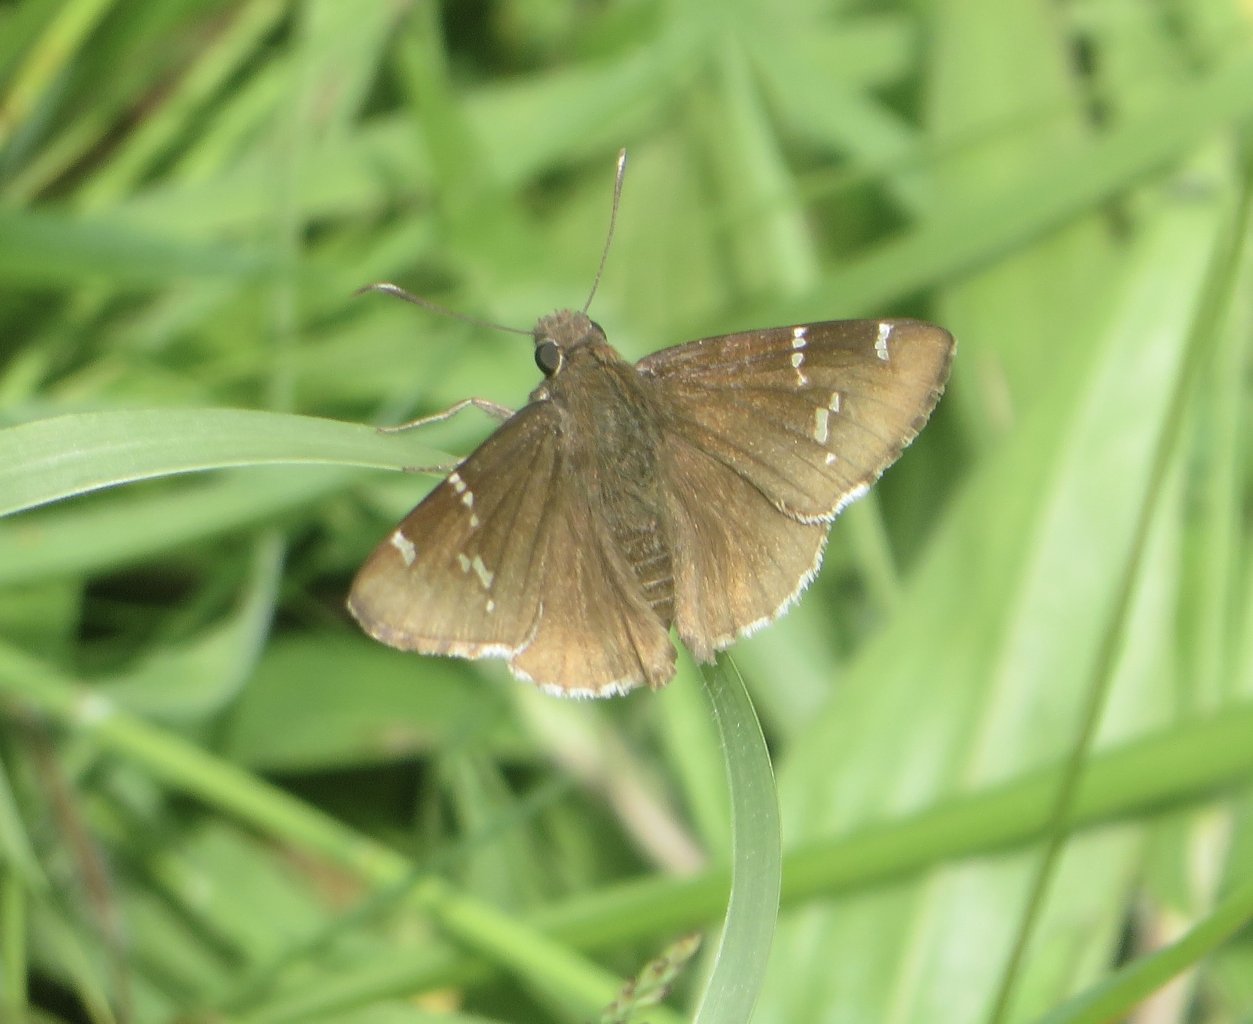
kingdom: Animalia
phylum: Arthropoda
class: Insecta
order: Lepidoptera
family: Hesperiidae
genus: Autochton
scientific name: Autochton
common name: Southern Cloudywing
